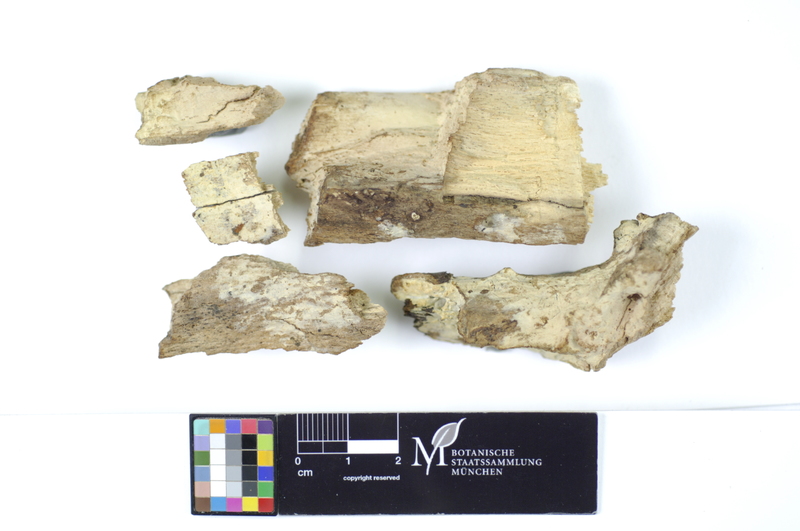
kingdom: Plantae
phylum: Tracheophyta
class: Magnoliopsida
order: Fagales
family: Fagaceae
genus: Fagus
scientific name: Fagus sylvatica
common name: Beech
